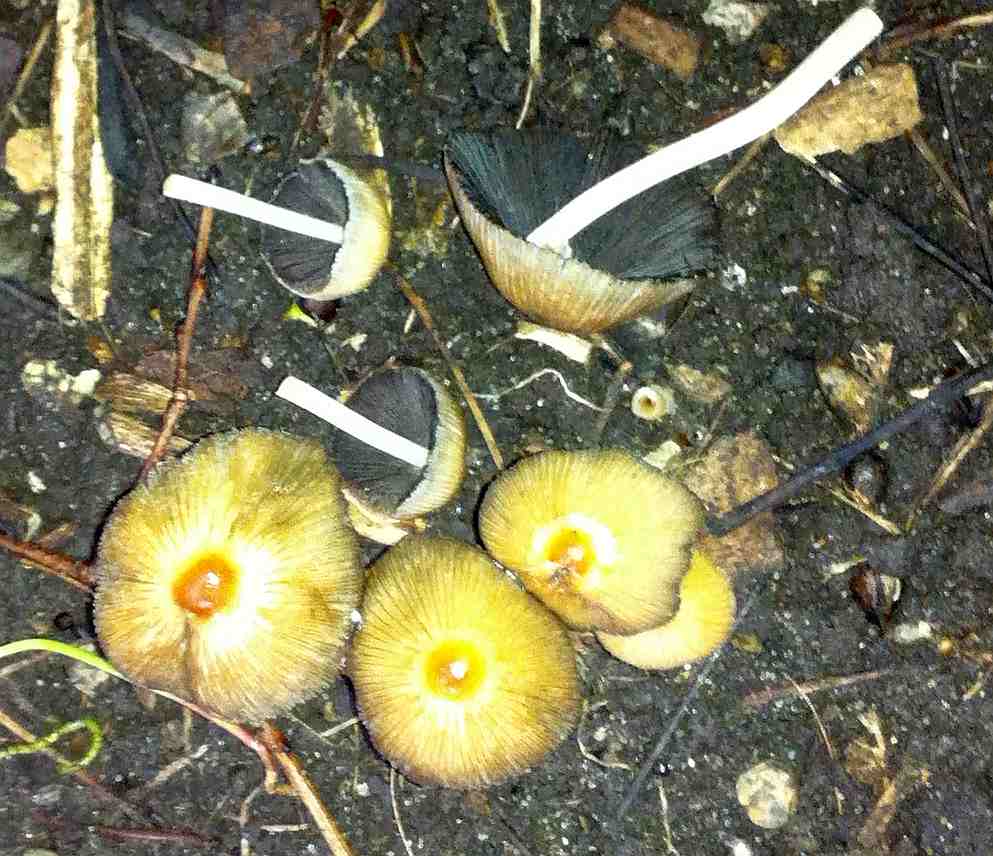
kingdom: Fungi
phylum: Basidiomycota
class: Agaricomycetes
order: Agaricales
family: Psathyrellaceae
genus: Coprinellus
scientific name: Coprinellus micaceus
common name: glimmer-blækhat
